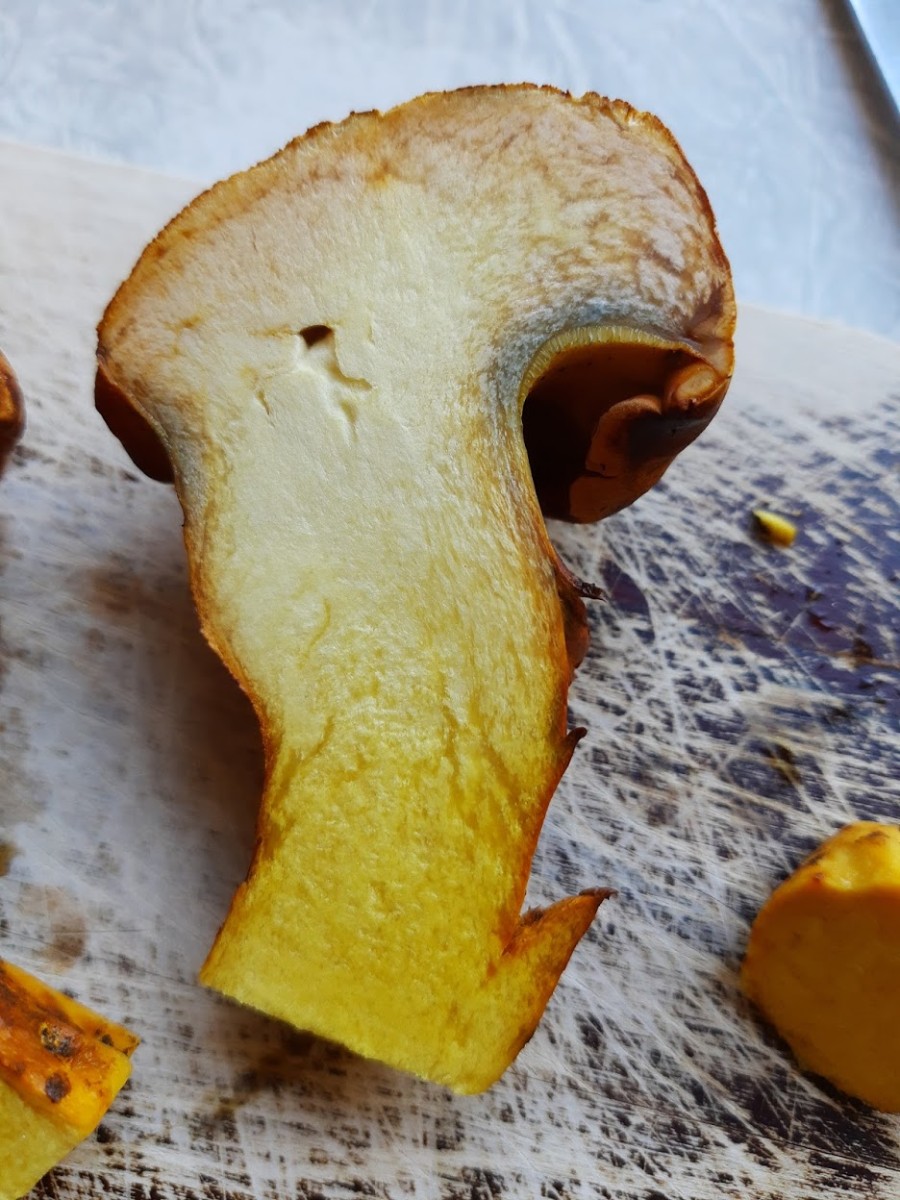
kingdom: Fungi
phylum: Basidiomycota
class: Agaricomycetes
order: Boletales
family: Boletaceae
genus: Buchwaldoboletus
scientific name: Buchwaldoboletus lignicola
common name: stødrørhat
